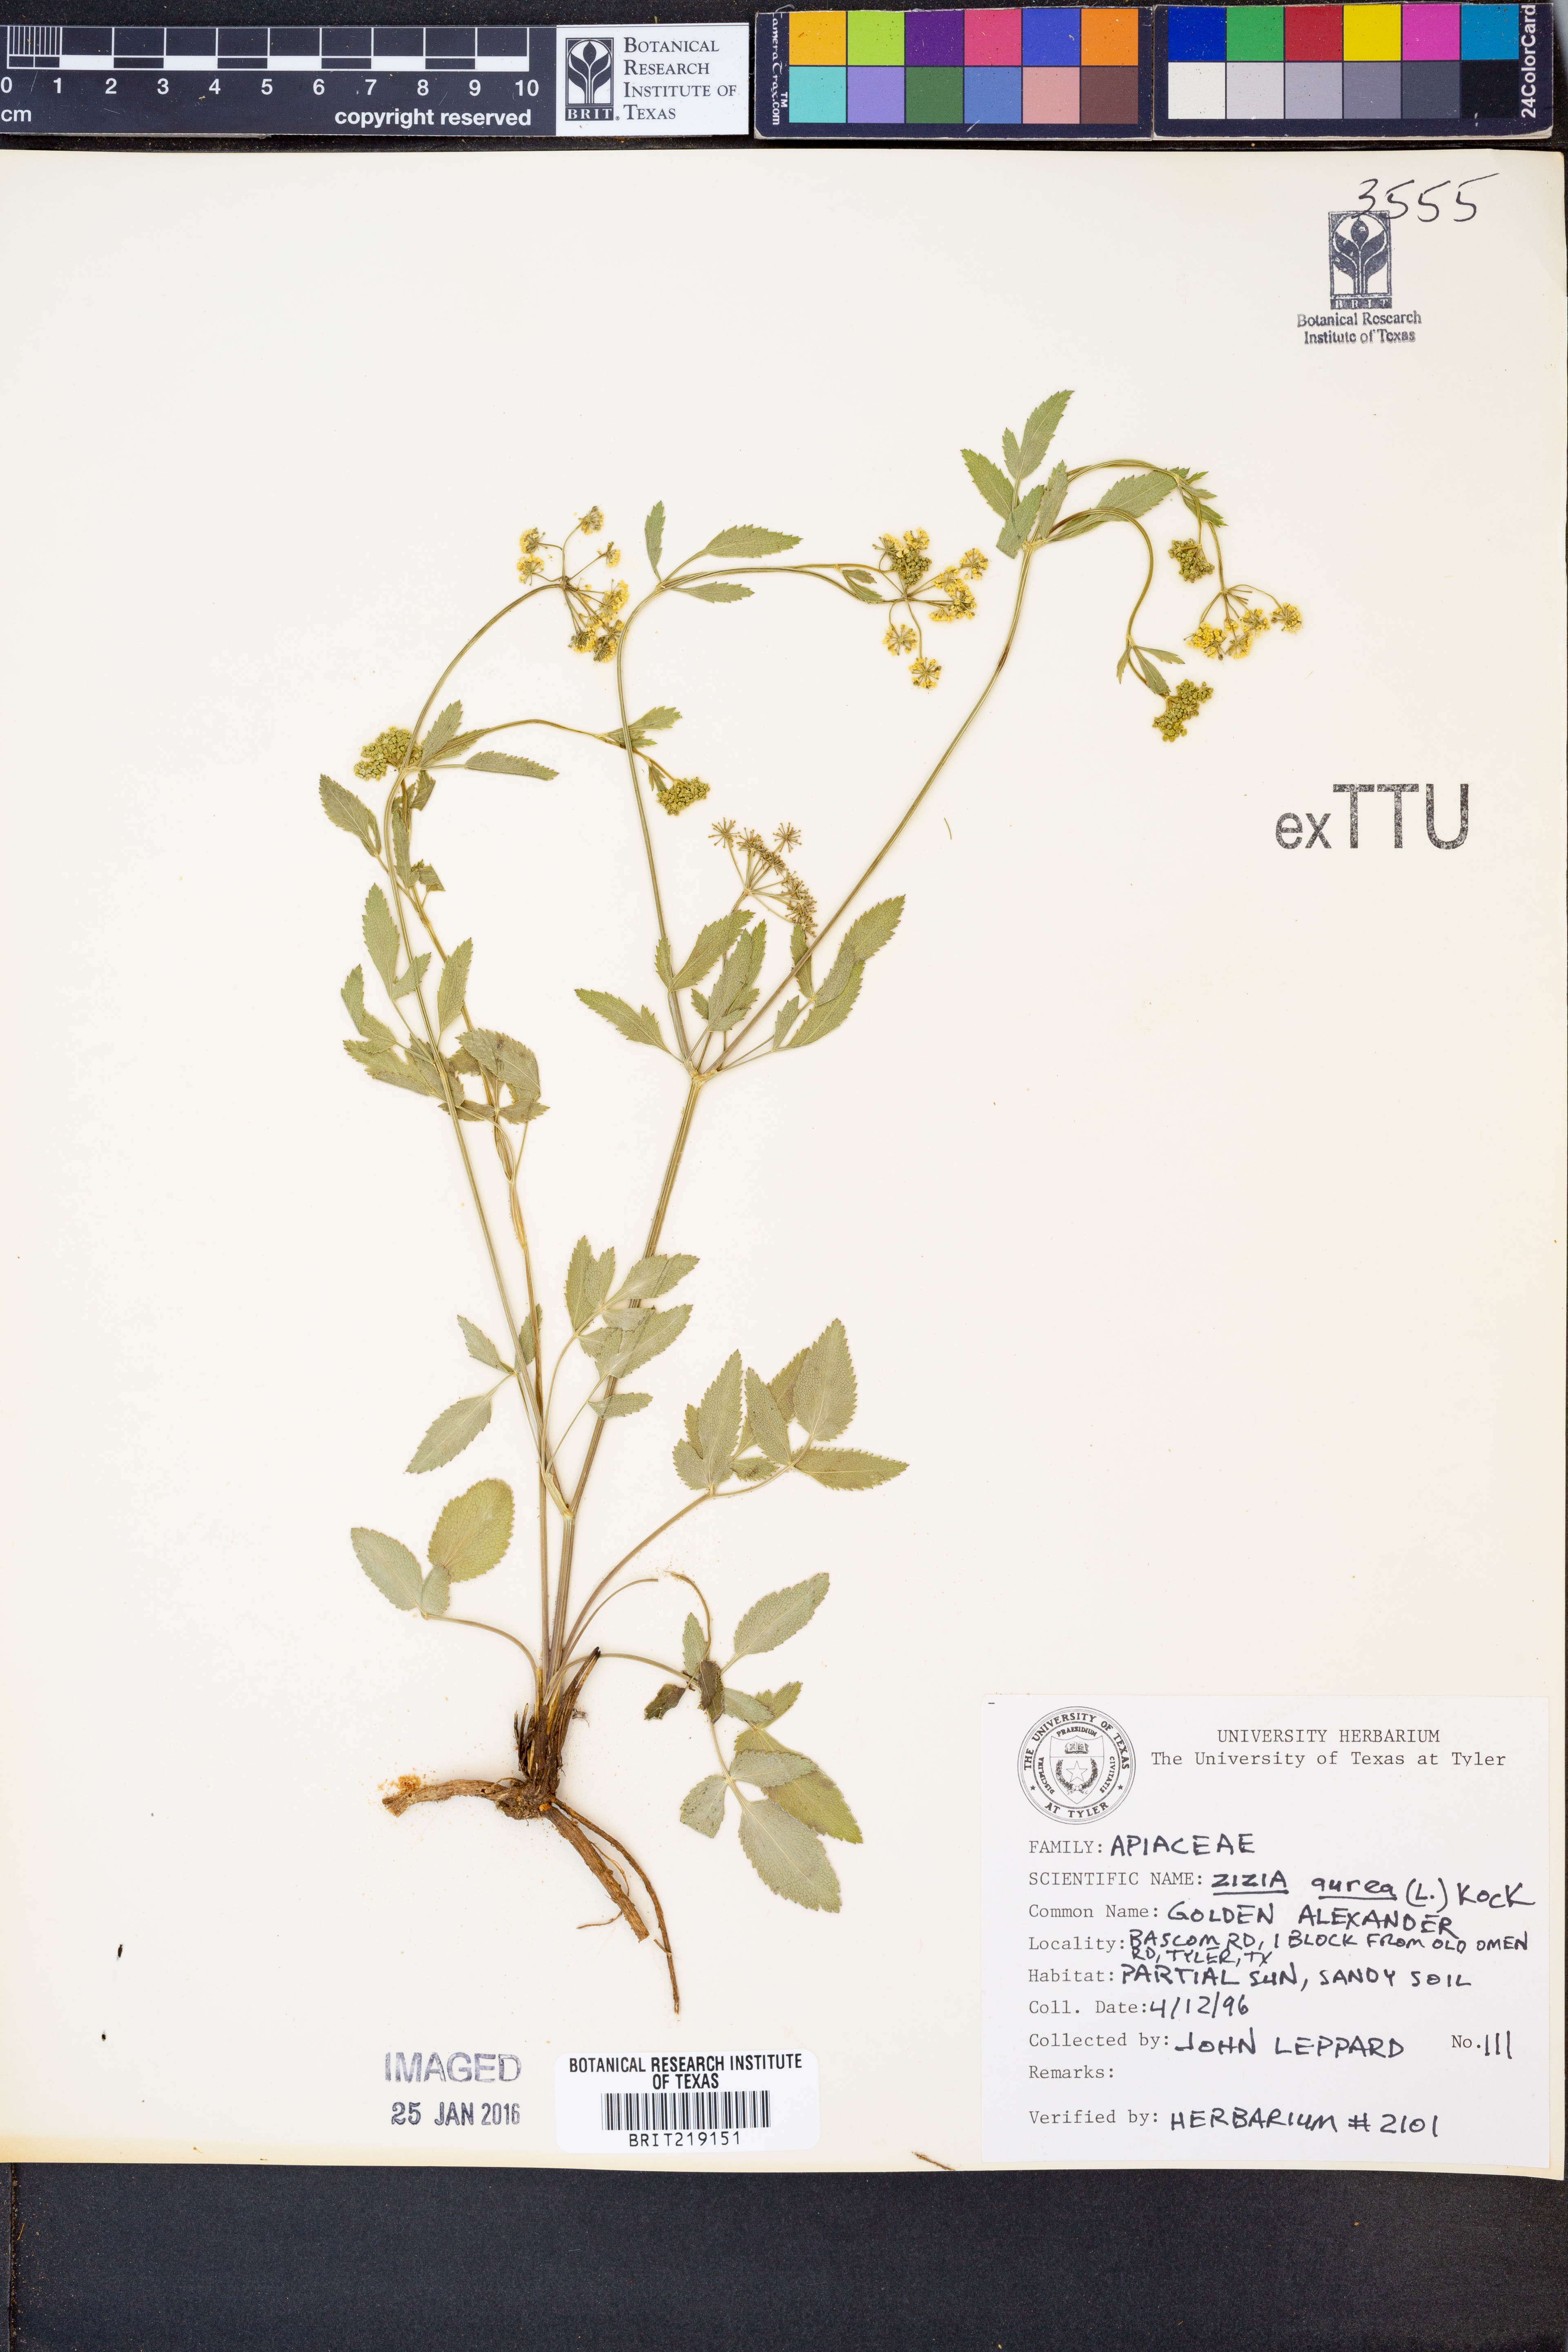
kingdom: Plantae
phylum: Tracheophyta
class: Magnoliopsida
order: Apiales
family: Apiaceae
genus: Zizia
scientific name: Zizia aurea
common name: Golden alexanders
